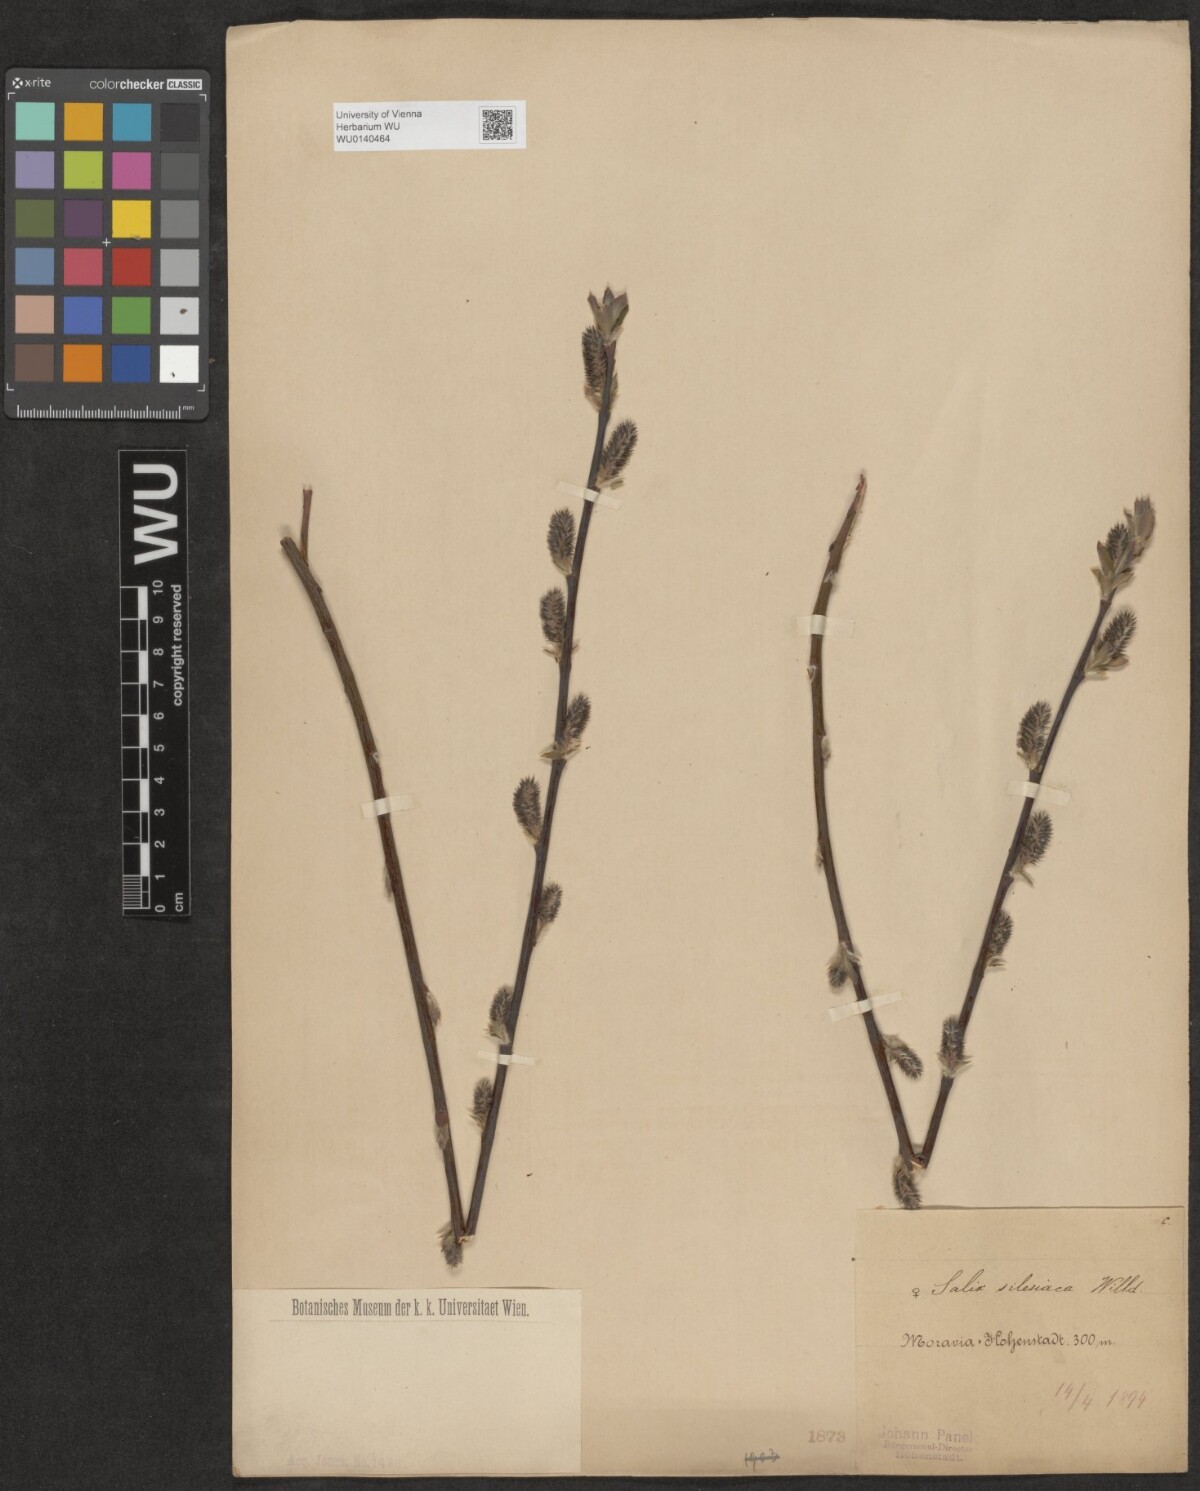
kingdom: Plantae
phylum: Tracheophyta
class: Magnoliopsida
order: Malpighiales
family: Salicaceae
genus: Salix
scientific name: Salix silesiaca
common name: Silesian willow
